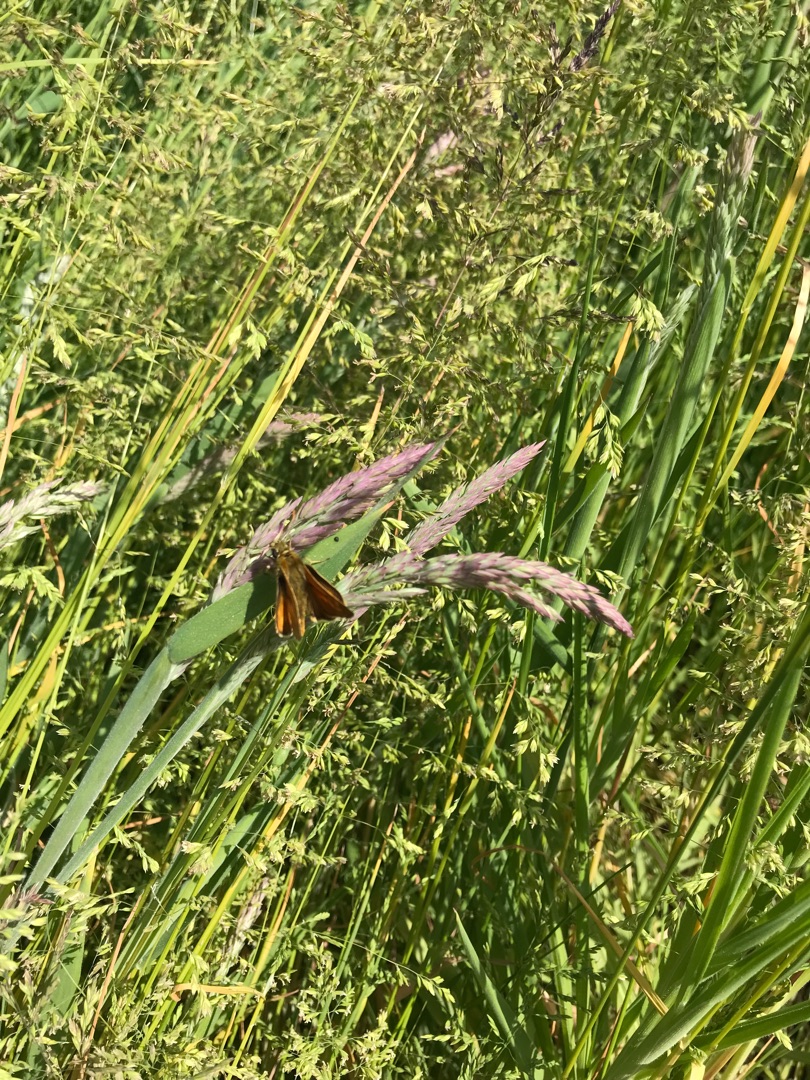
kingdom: Animalia
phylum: Arthropoda
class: Insecta
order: Lepidoptera
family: Hesperiidae
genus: Ochlodes
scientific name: Ochlodes venata
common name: Stor bredpande
